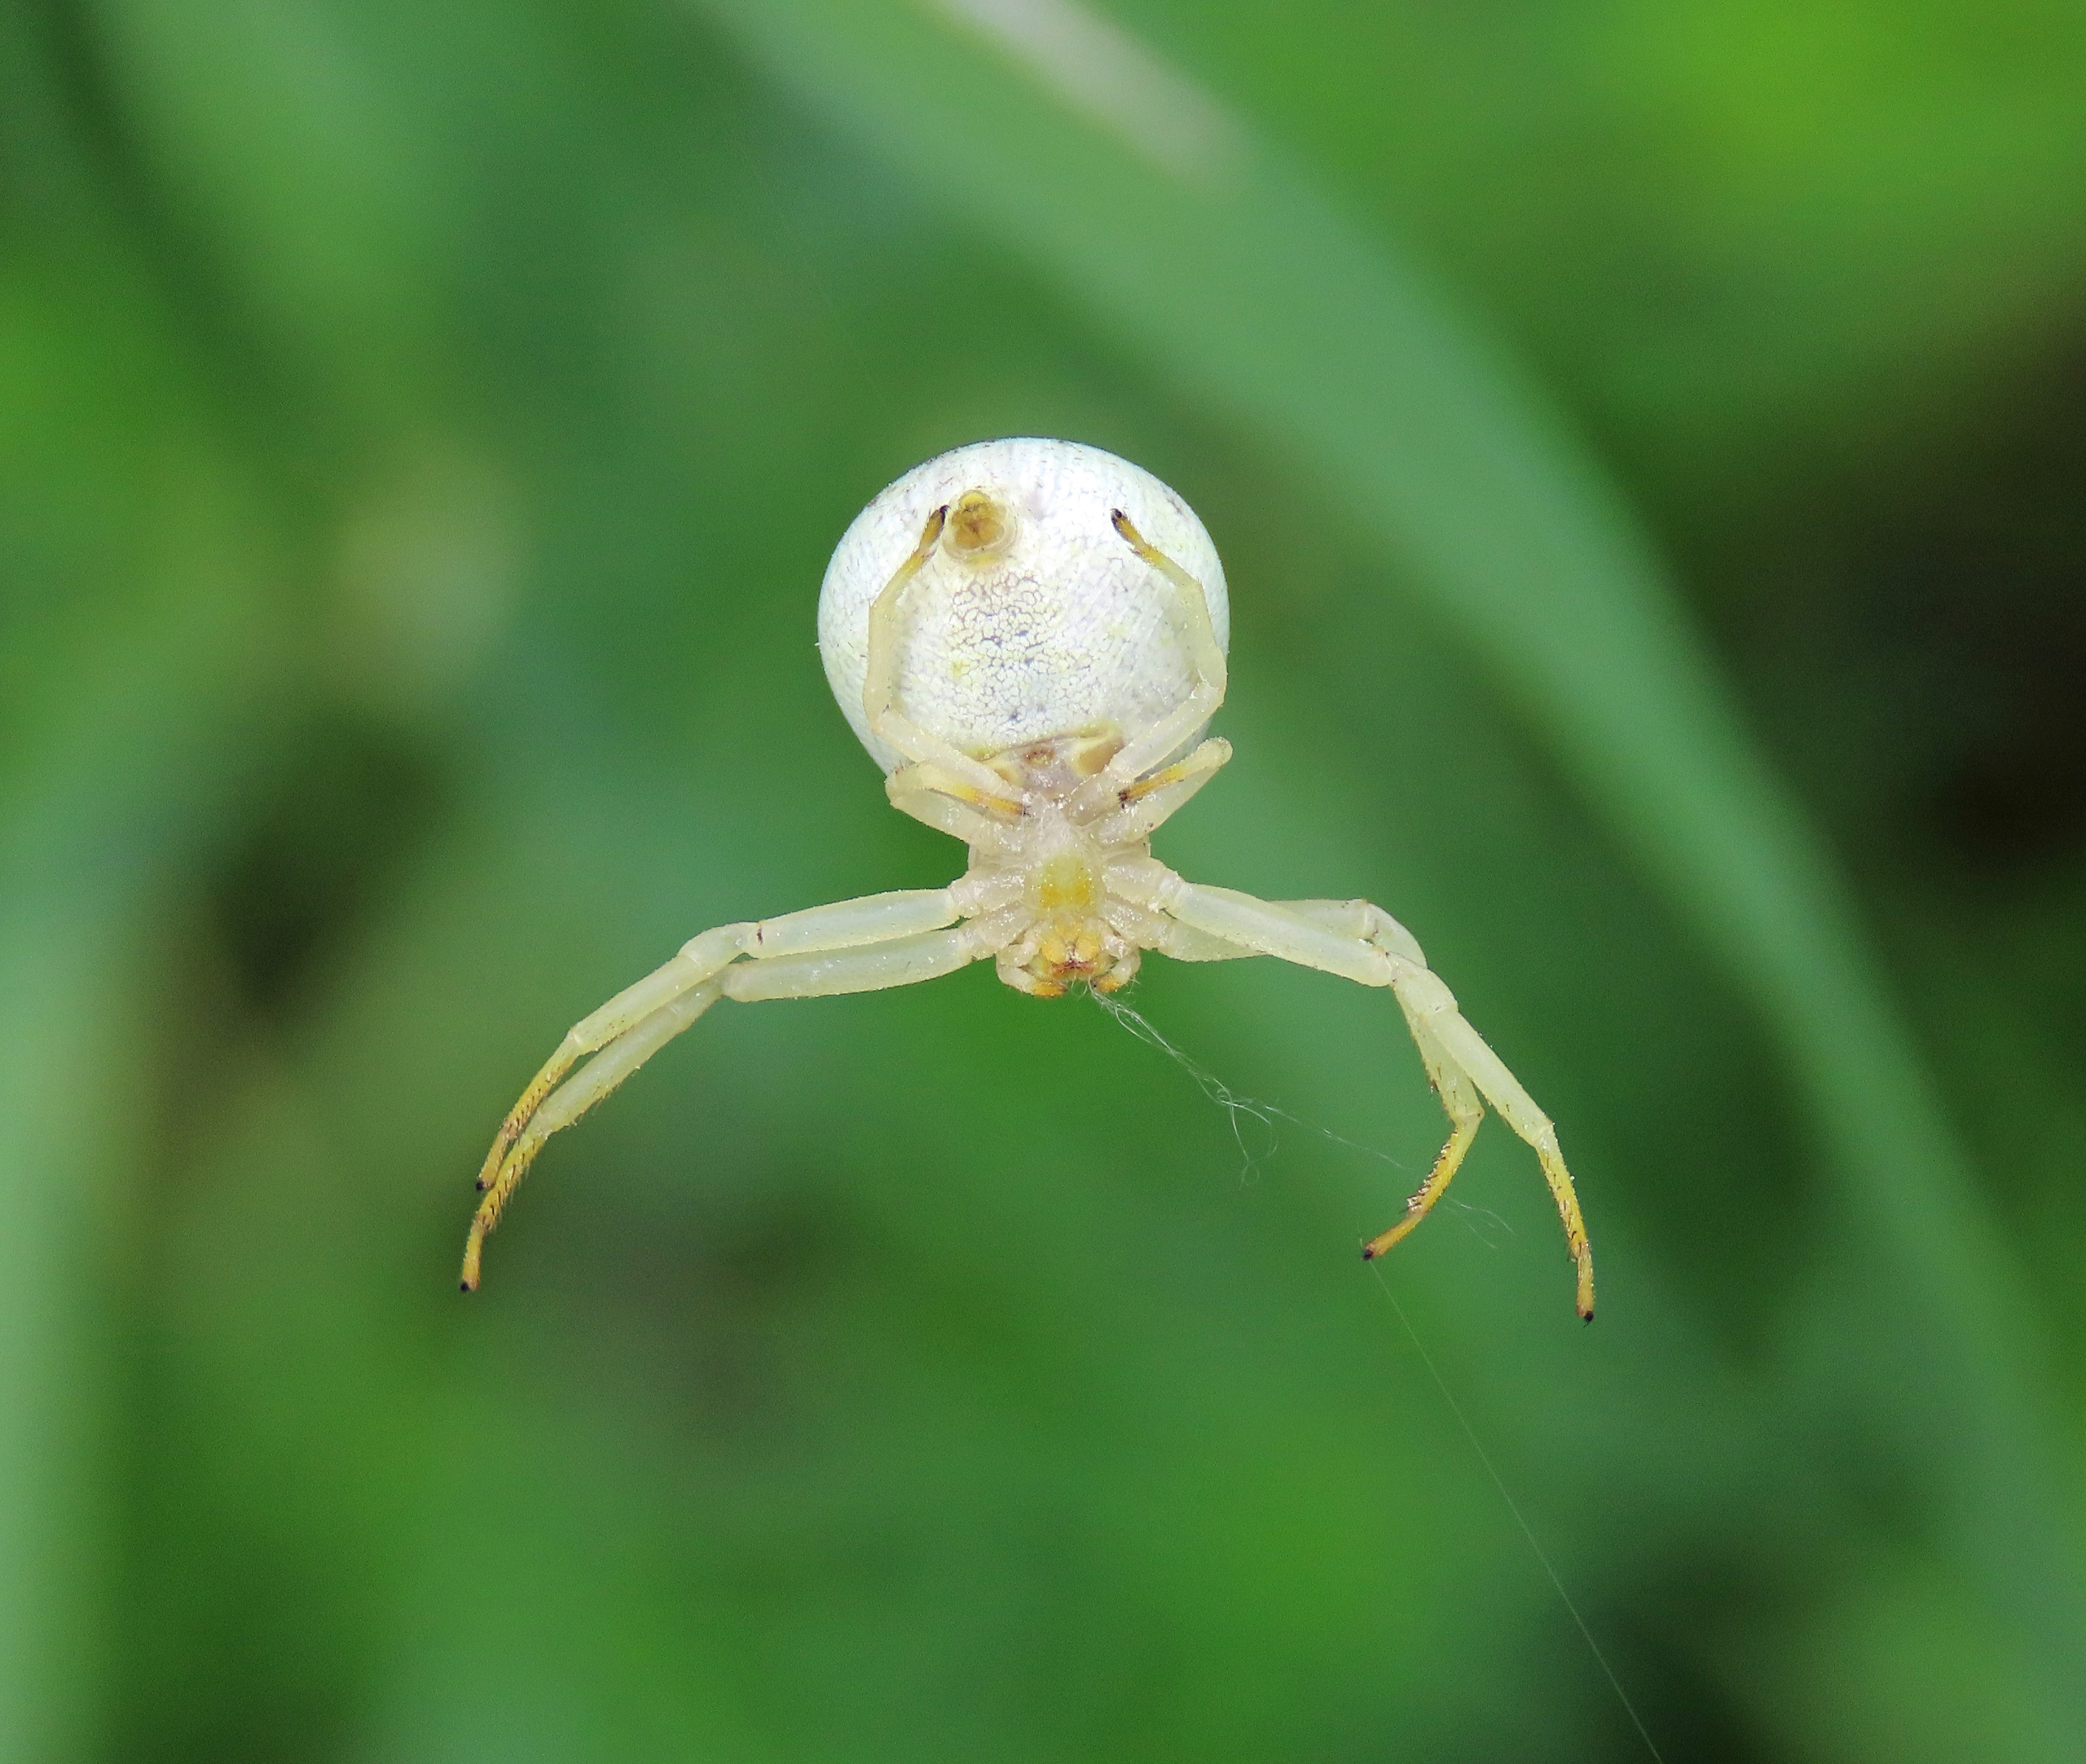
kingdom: Animalia
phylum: Arthropoda
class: Arachnida
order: Araneae
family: Thomisidae
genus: Misumena
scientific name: Misumena vatia
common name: Kamæleonedderkop
